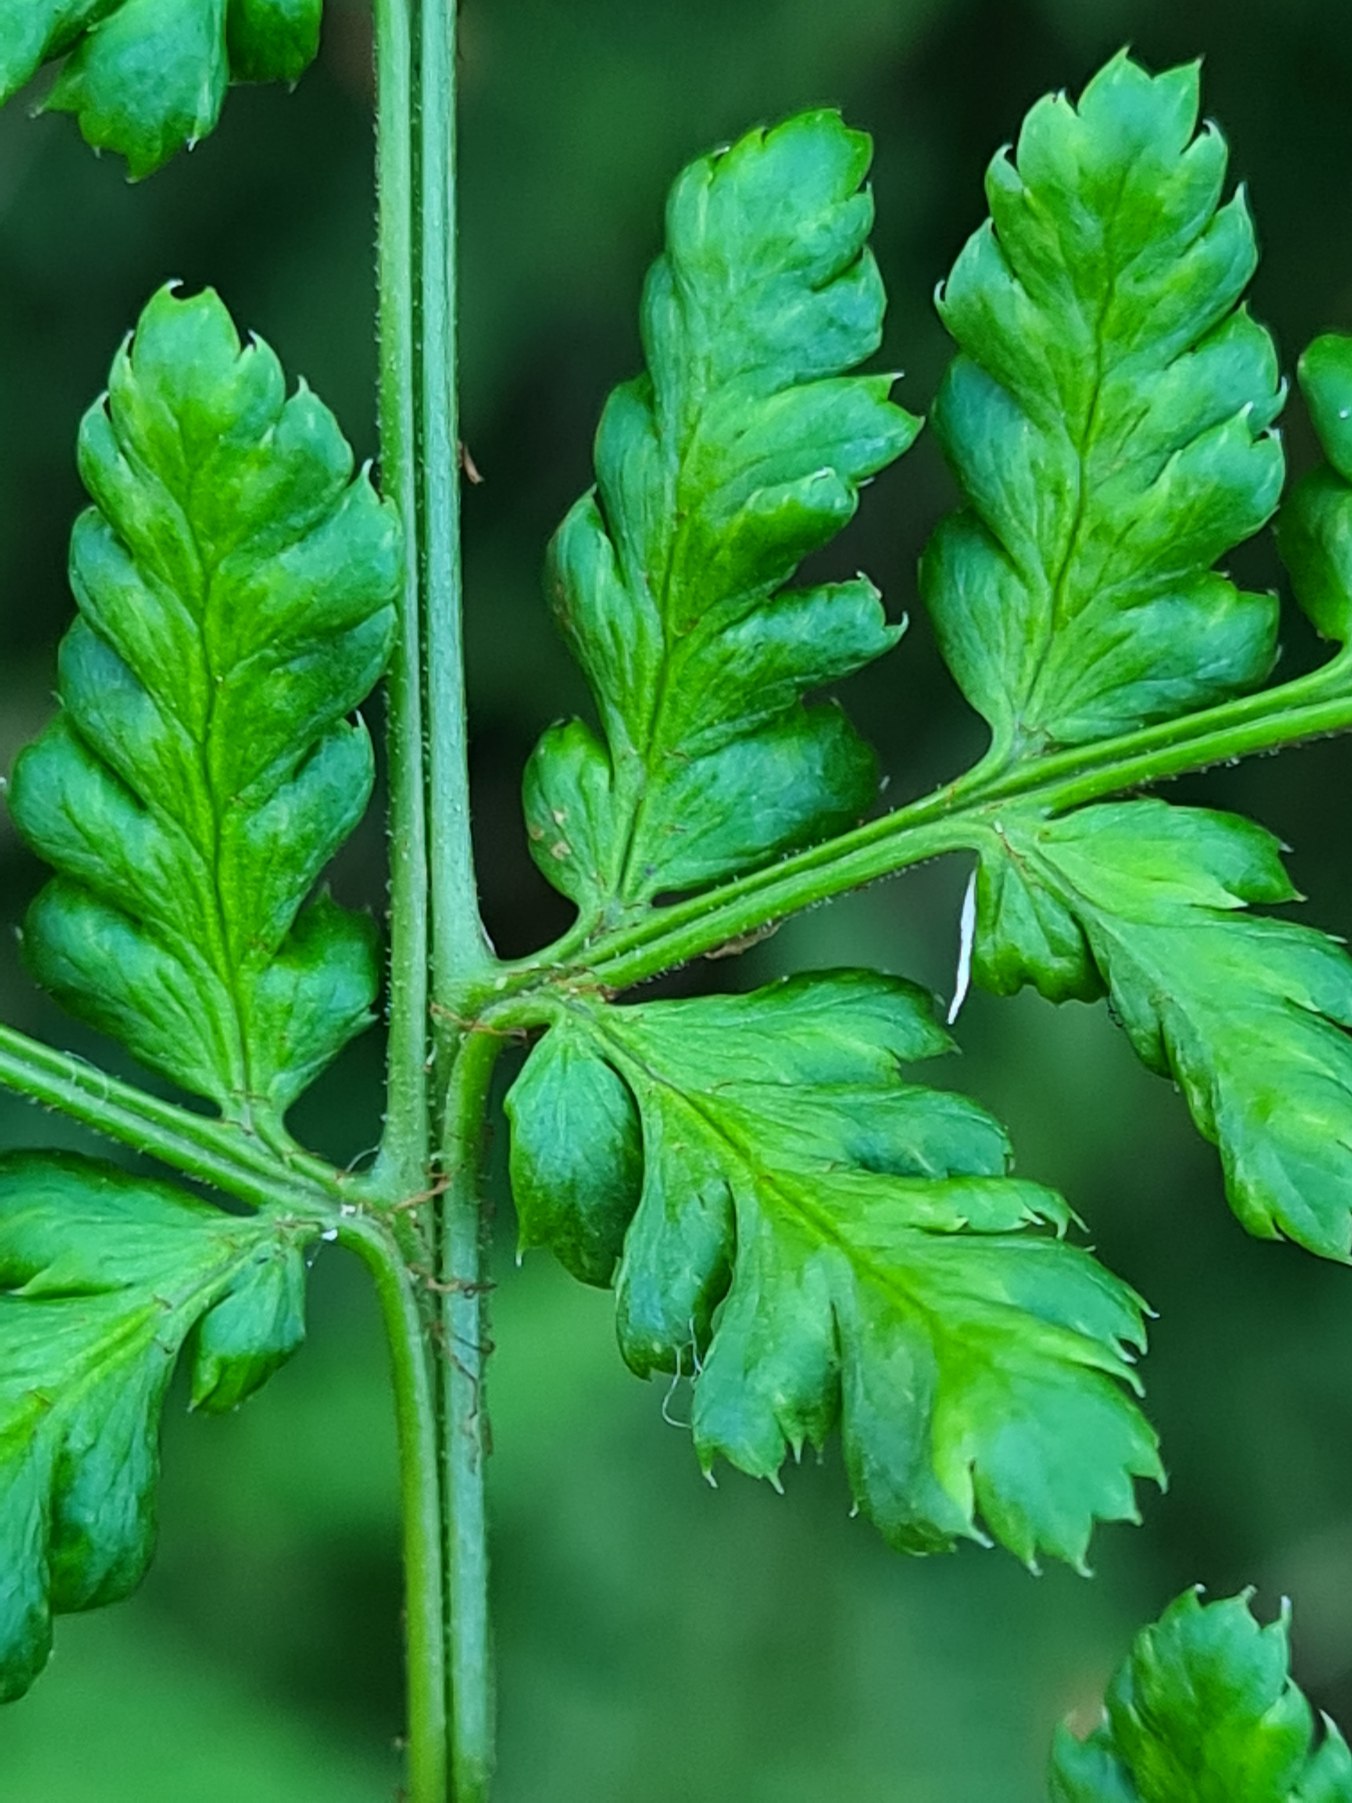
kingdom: Plantae
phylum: Tracheophyta
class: Polypodiopsida
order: Polypodiales
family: Dryopteridaceae
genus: Dryopteris
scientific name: Dryopteris dilatata
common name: Bredbladet mangeløv
